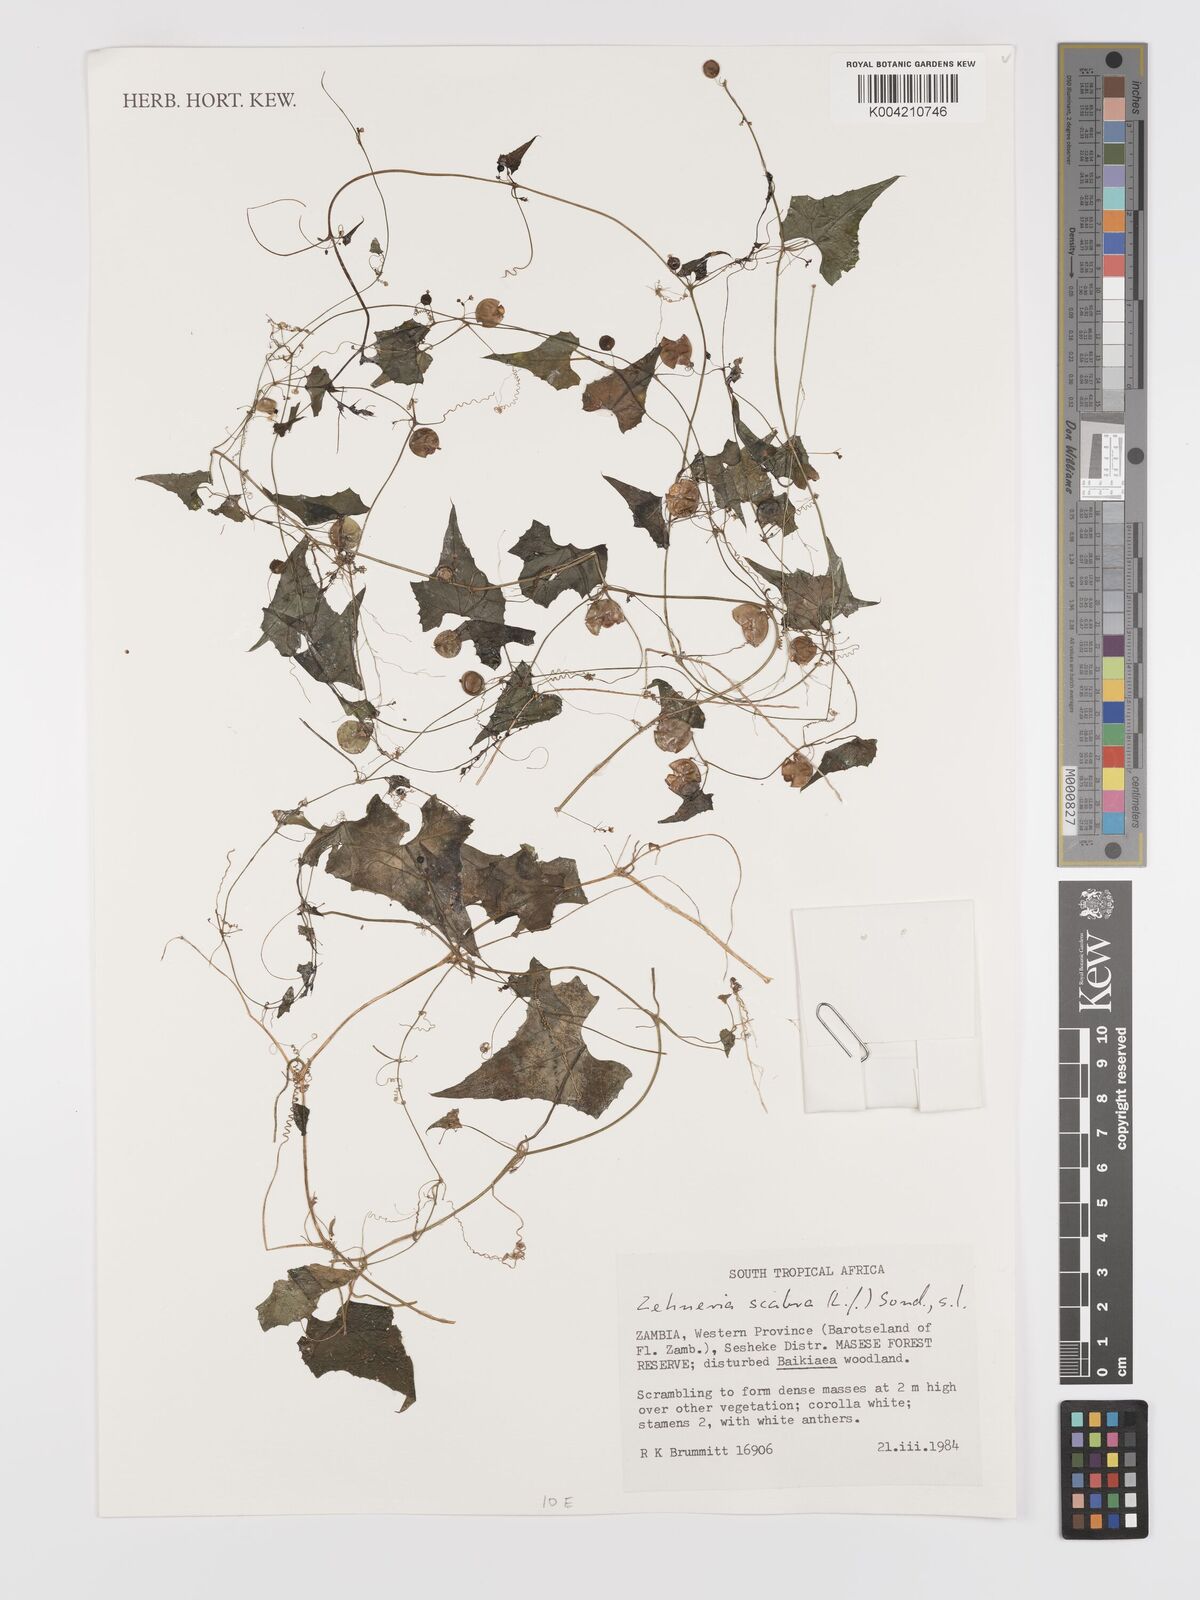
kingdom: Plantae
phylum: Tracheophyta
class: Magnoliopsida
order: Cucurbitales
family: Cucurbitaceae
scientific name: Cucurbitaceae
